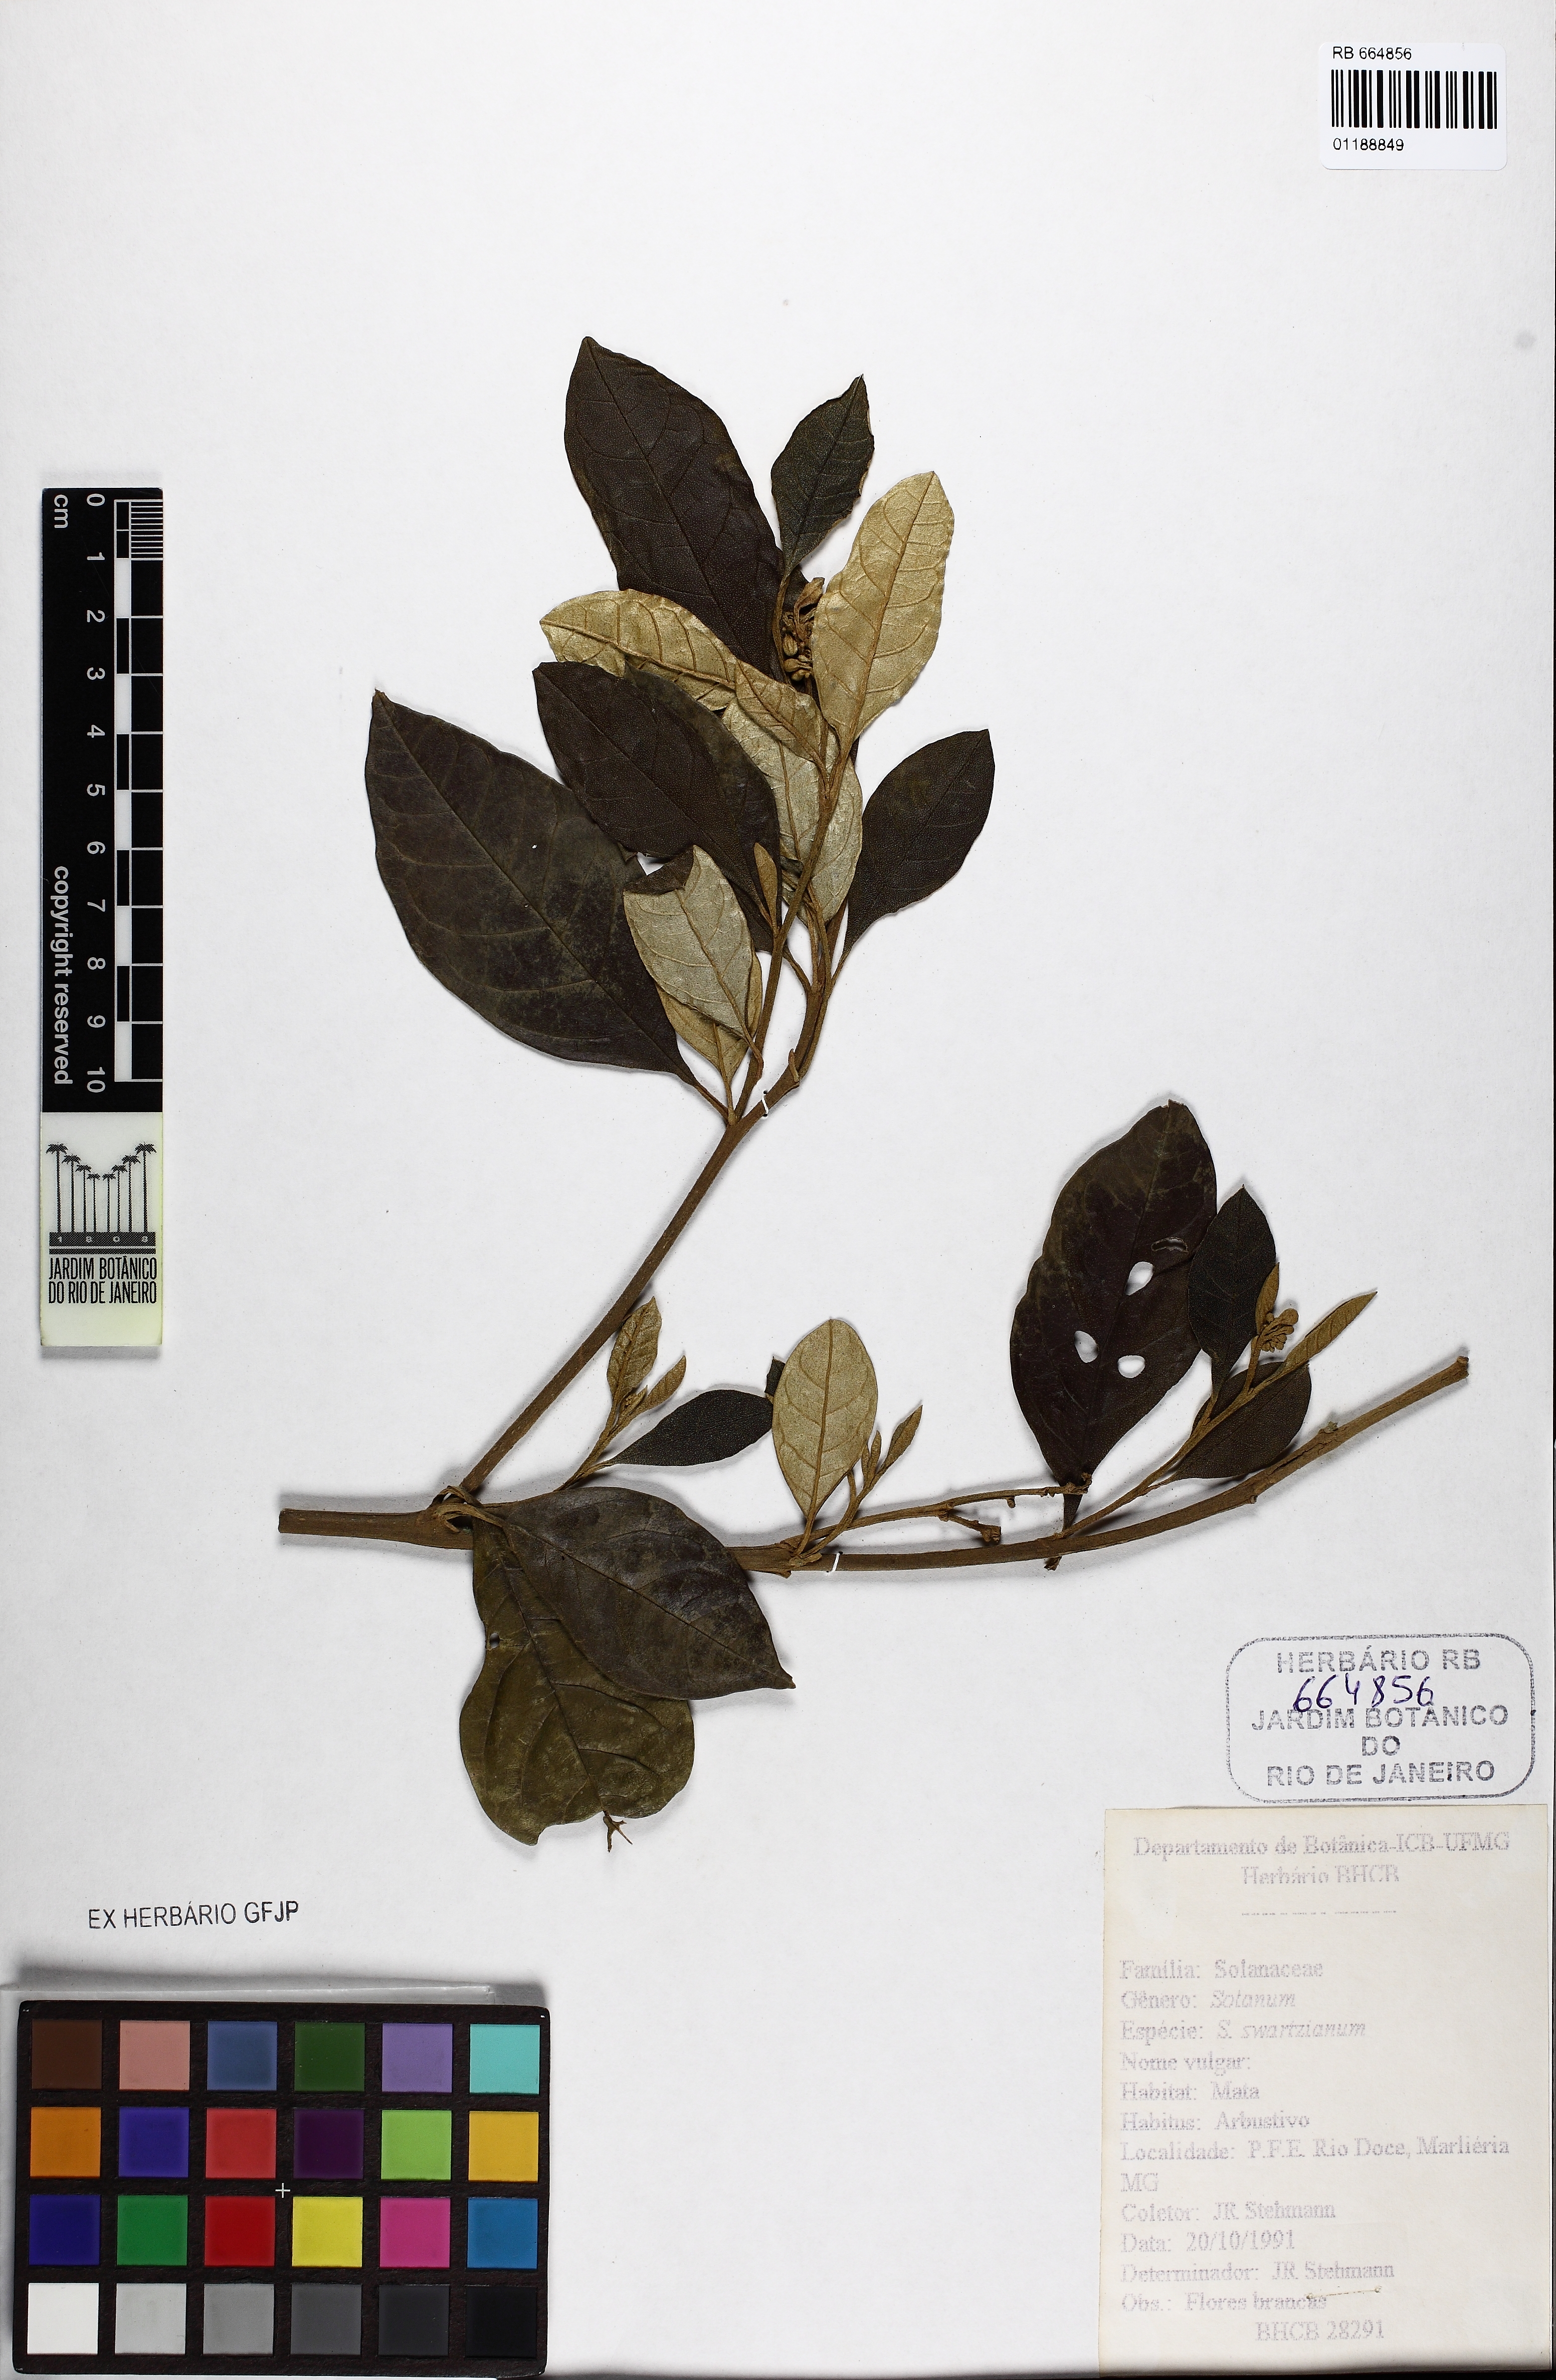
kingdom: Plantae
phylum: Tracheophyta
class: Magnoliopsida
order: Solanales
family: Solanaceae
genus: Solanum
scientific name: Solanum swartzianum
